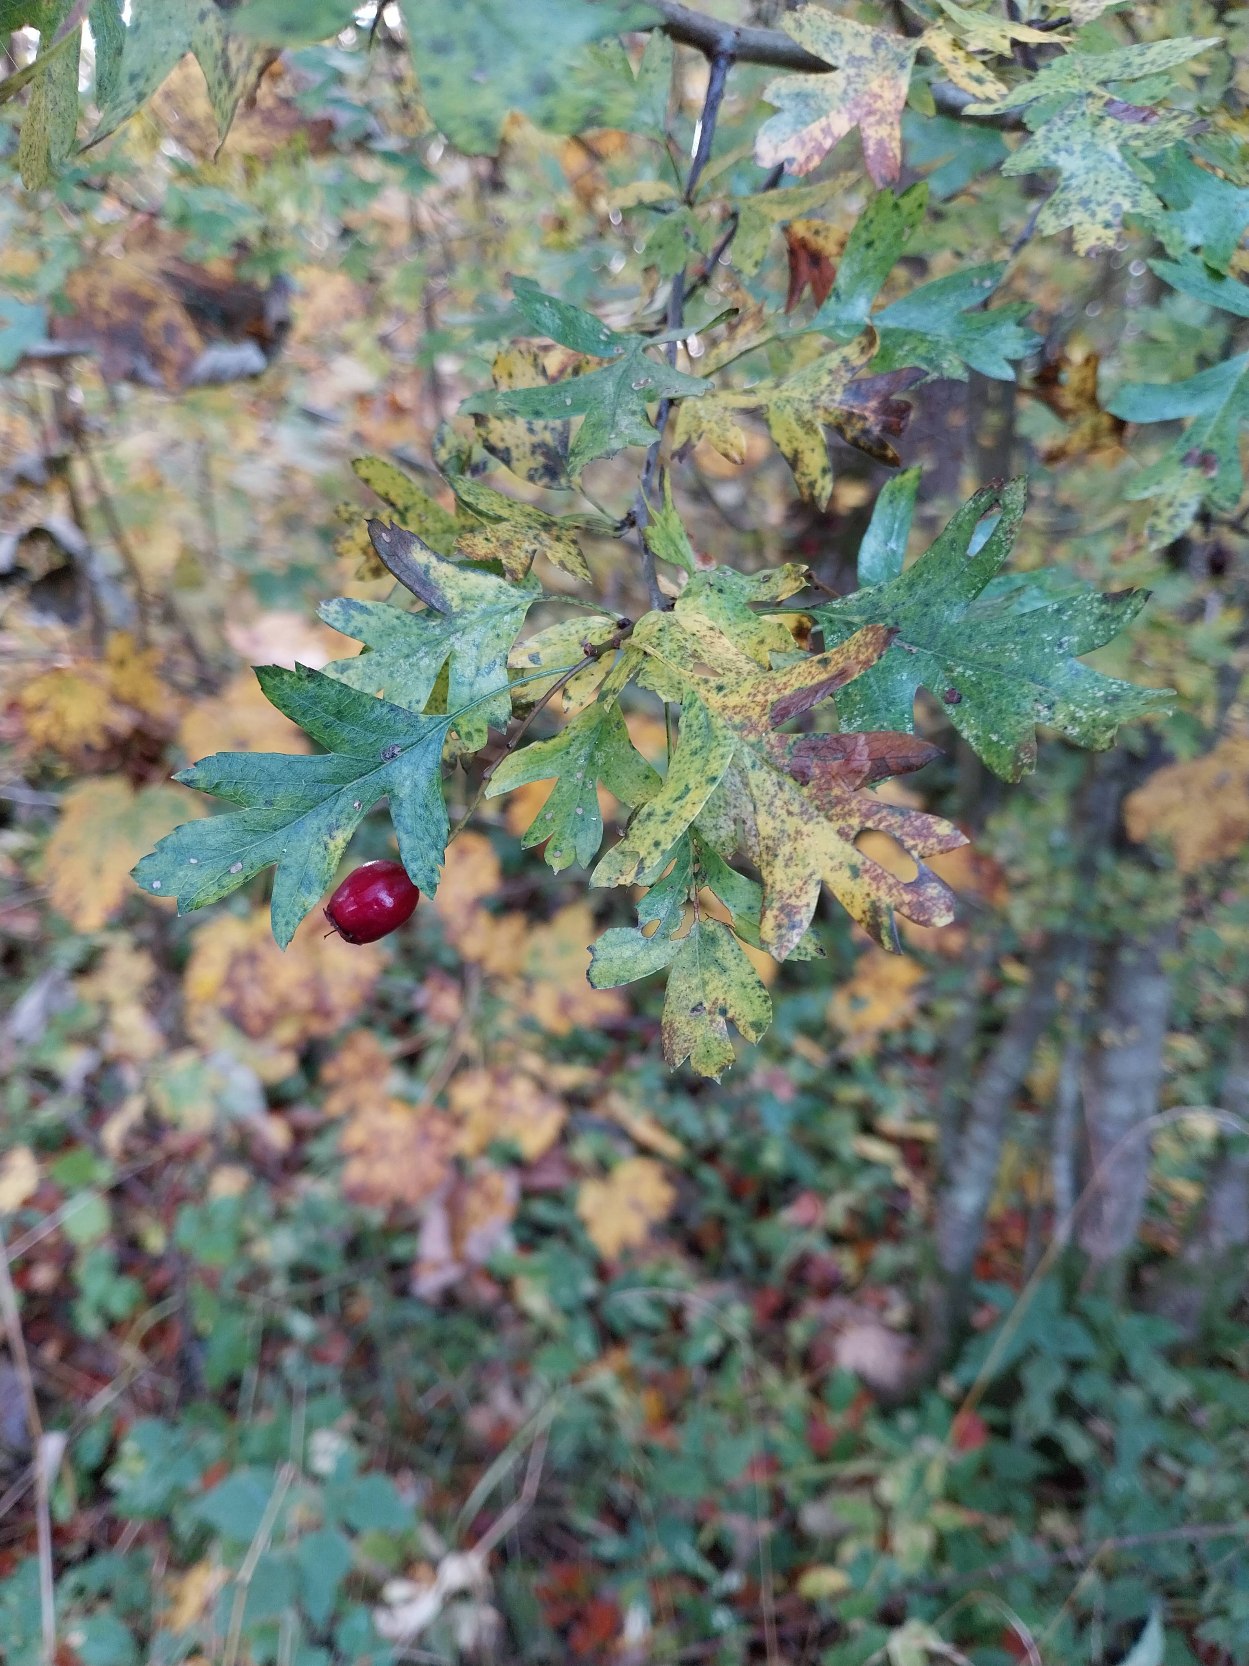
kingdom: Plantae
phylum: Tracheophyta
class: Magnoliopsida
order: Rosales
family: Rosaceae
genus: Crataegus
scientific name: Crataegus monogyna
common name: Engriflet hvidtjørn
